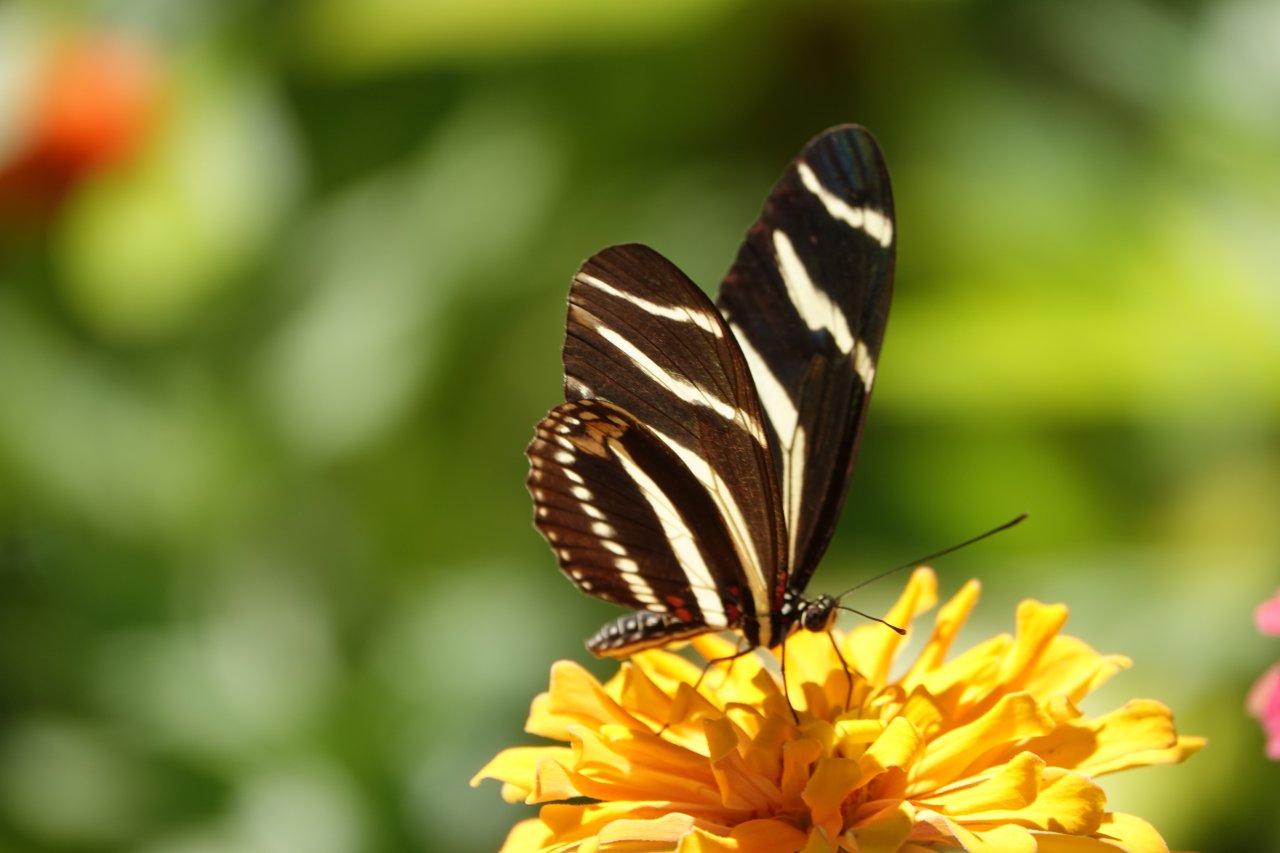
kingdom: Animalia
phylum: Arthropoda
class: Insecta
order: Lepidoptera
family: Nymphalidae
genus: Heliconius
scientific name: Heliconius charithonia
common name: Zebra Longwing
